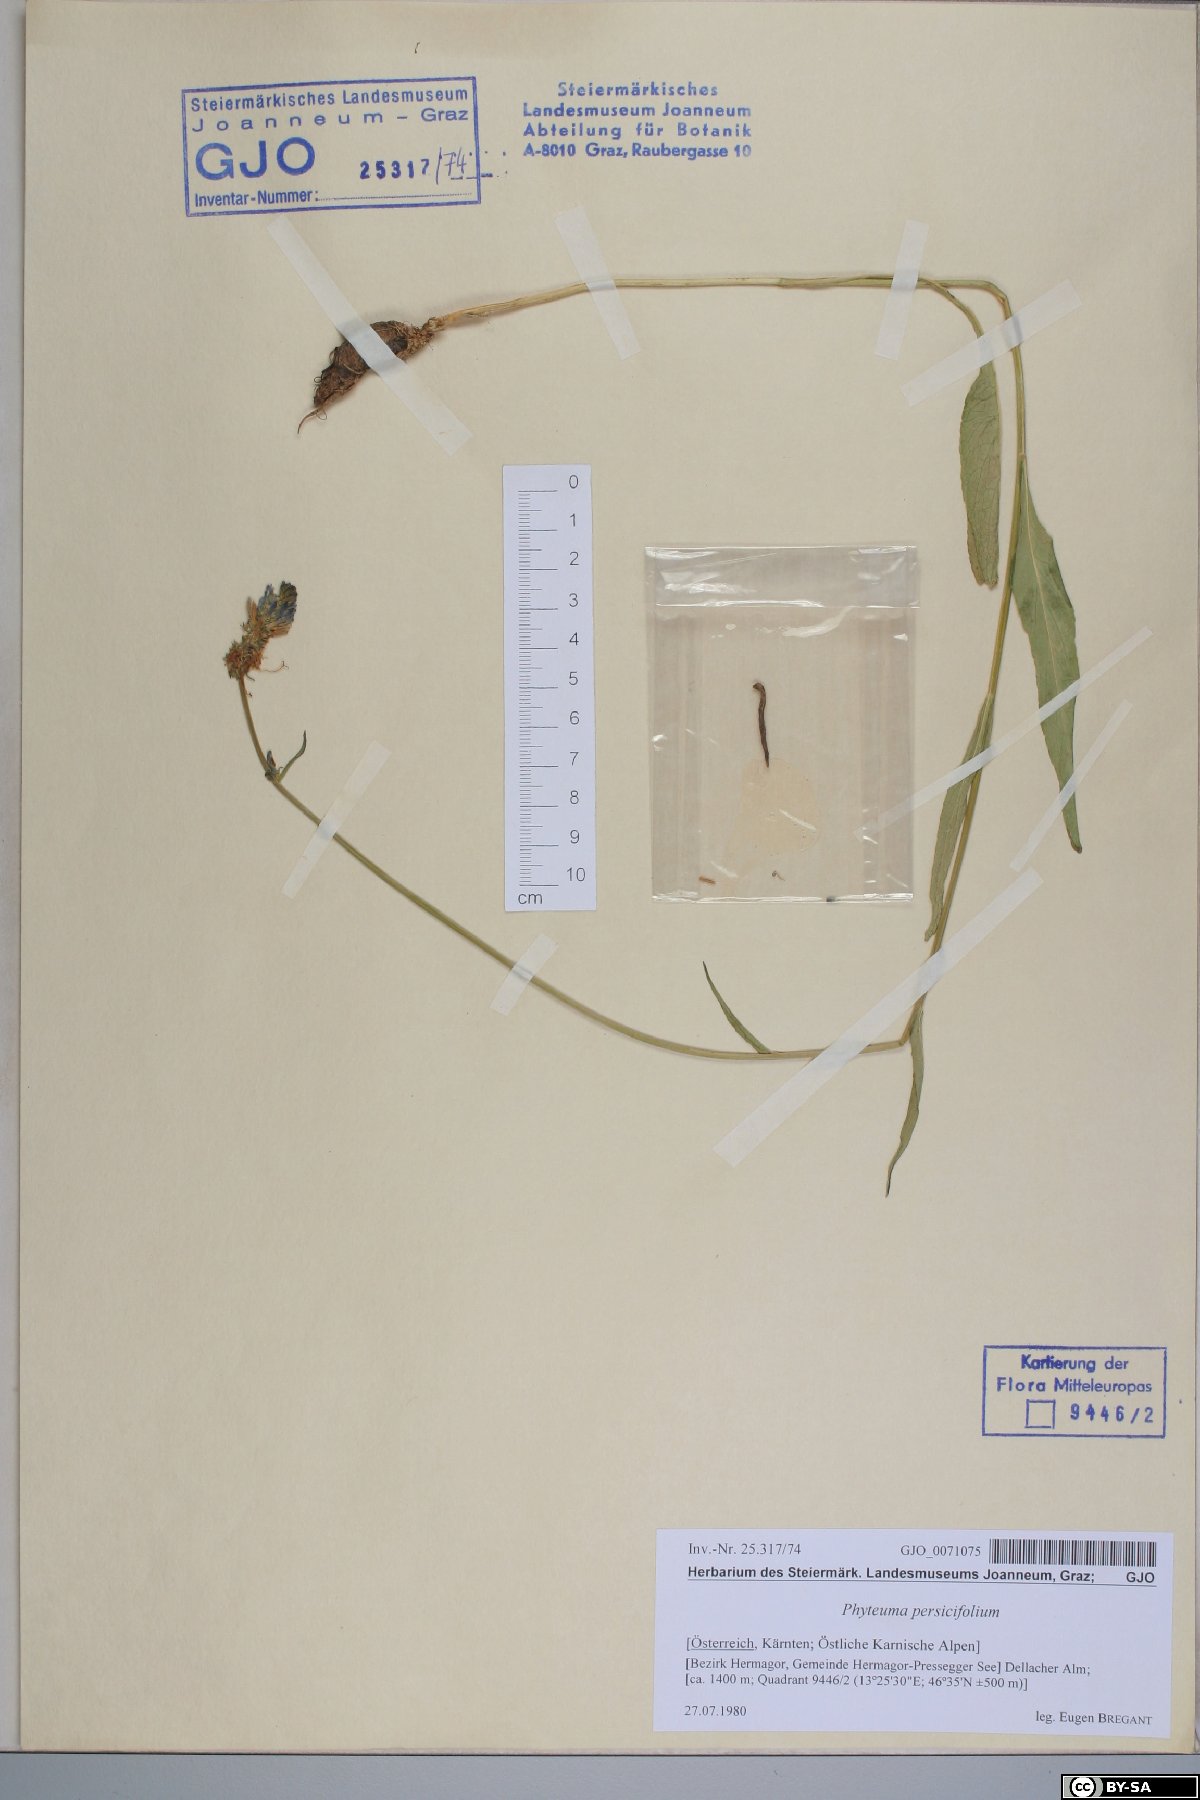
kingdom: Plantae
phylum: Tracheophyta
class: Magnoliopsida
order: Asterales
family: Campanulaceae
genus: Phyteuma
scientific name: Phyteuma persicifolium
